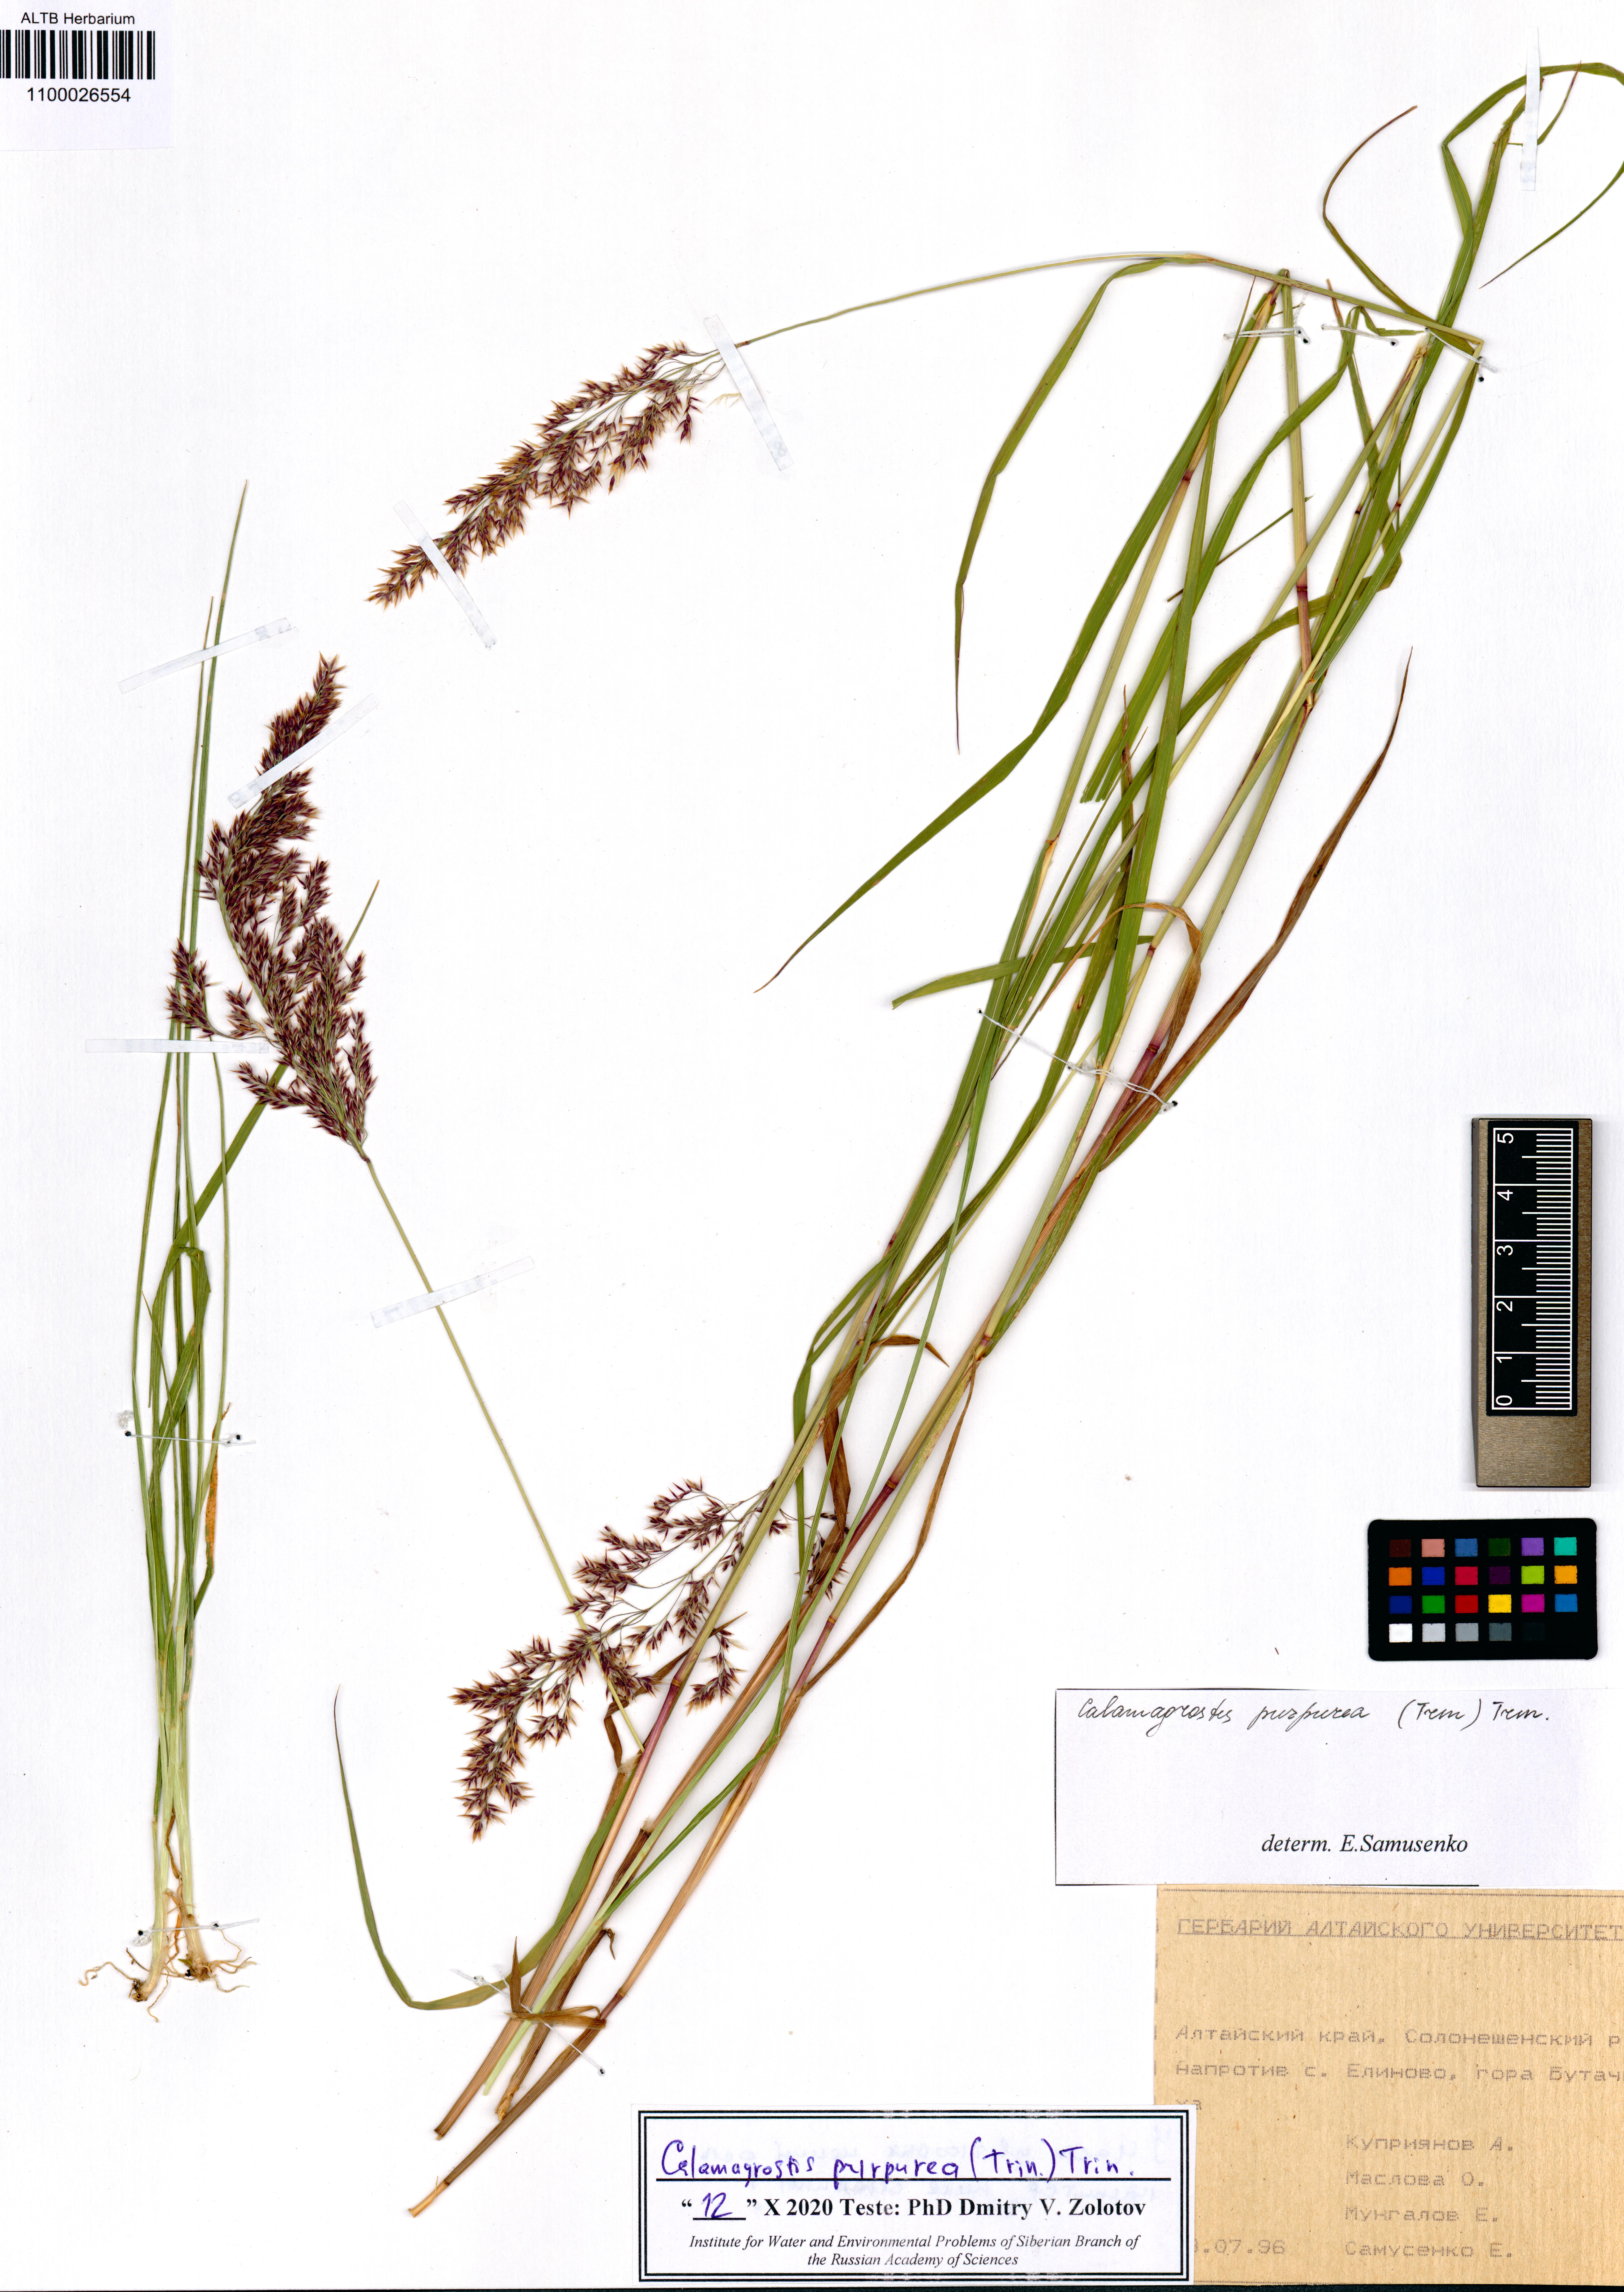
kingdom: Plantae
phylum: Tracheophyta
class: Liliopsida
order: Poales
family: Poaceae
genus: Calamagrostis
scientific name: Calamagrostis purpurea
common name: Scandinavian small-reed
